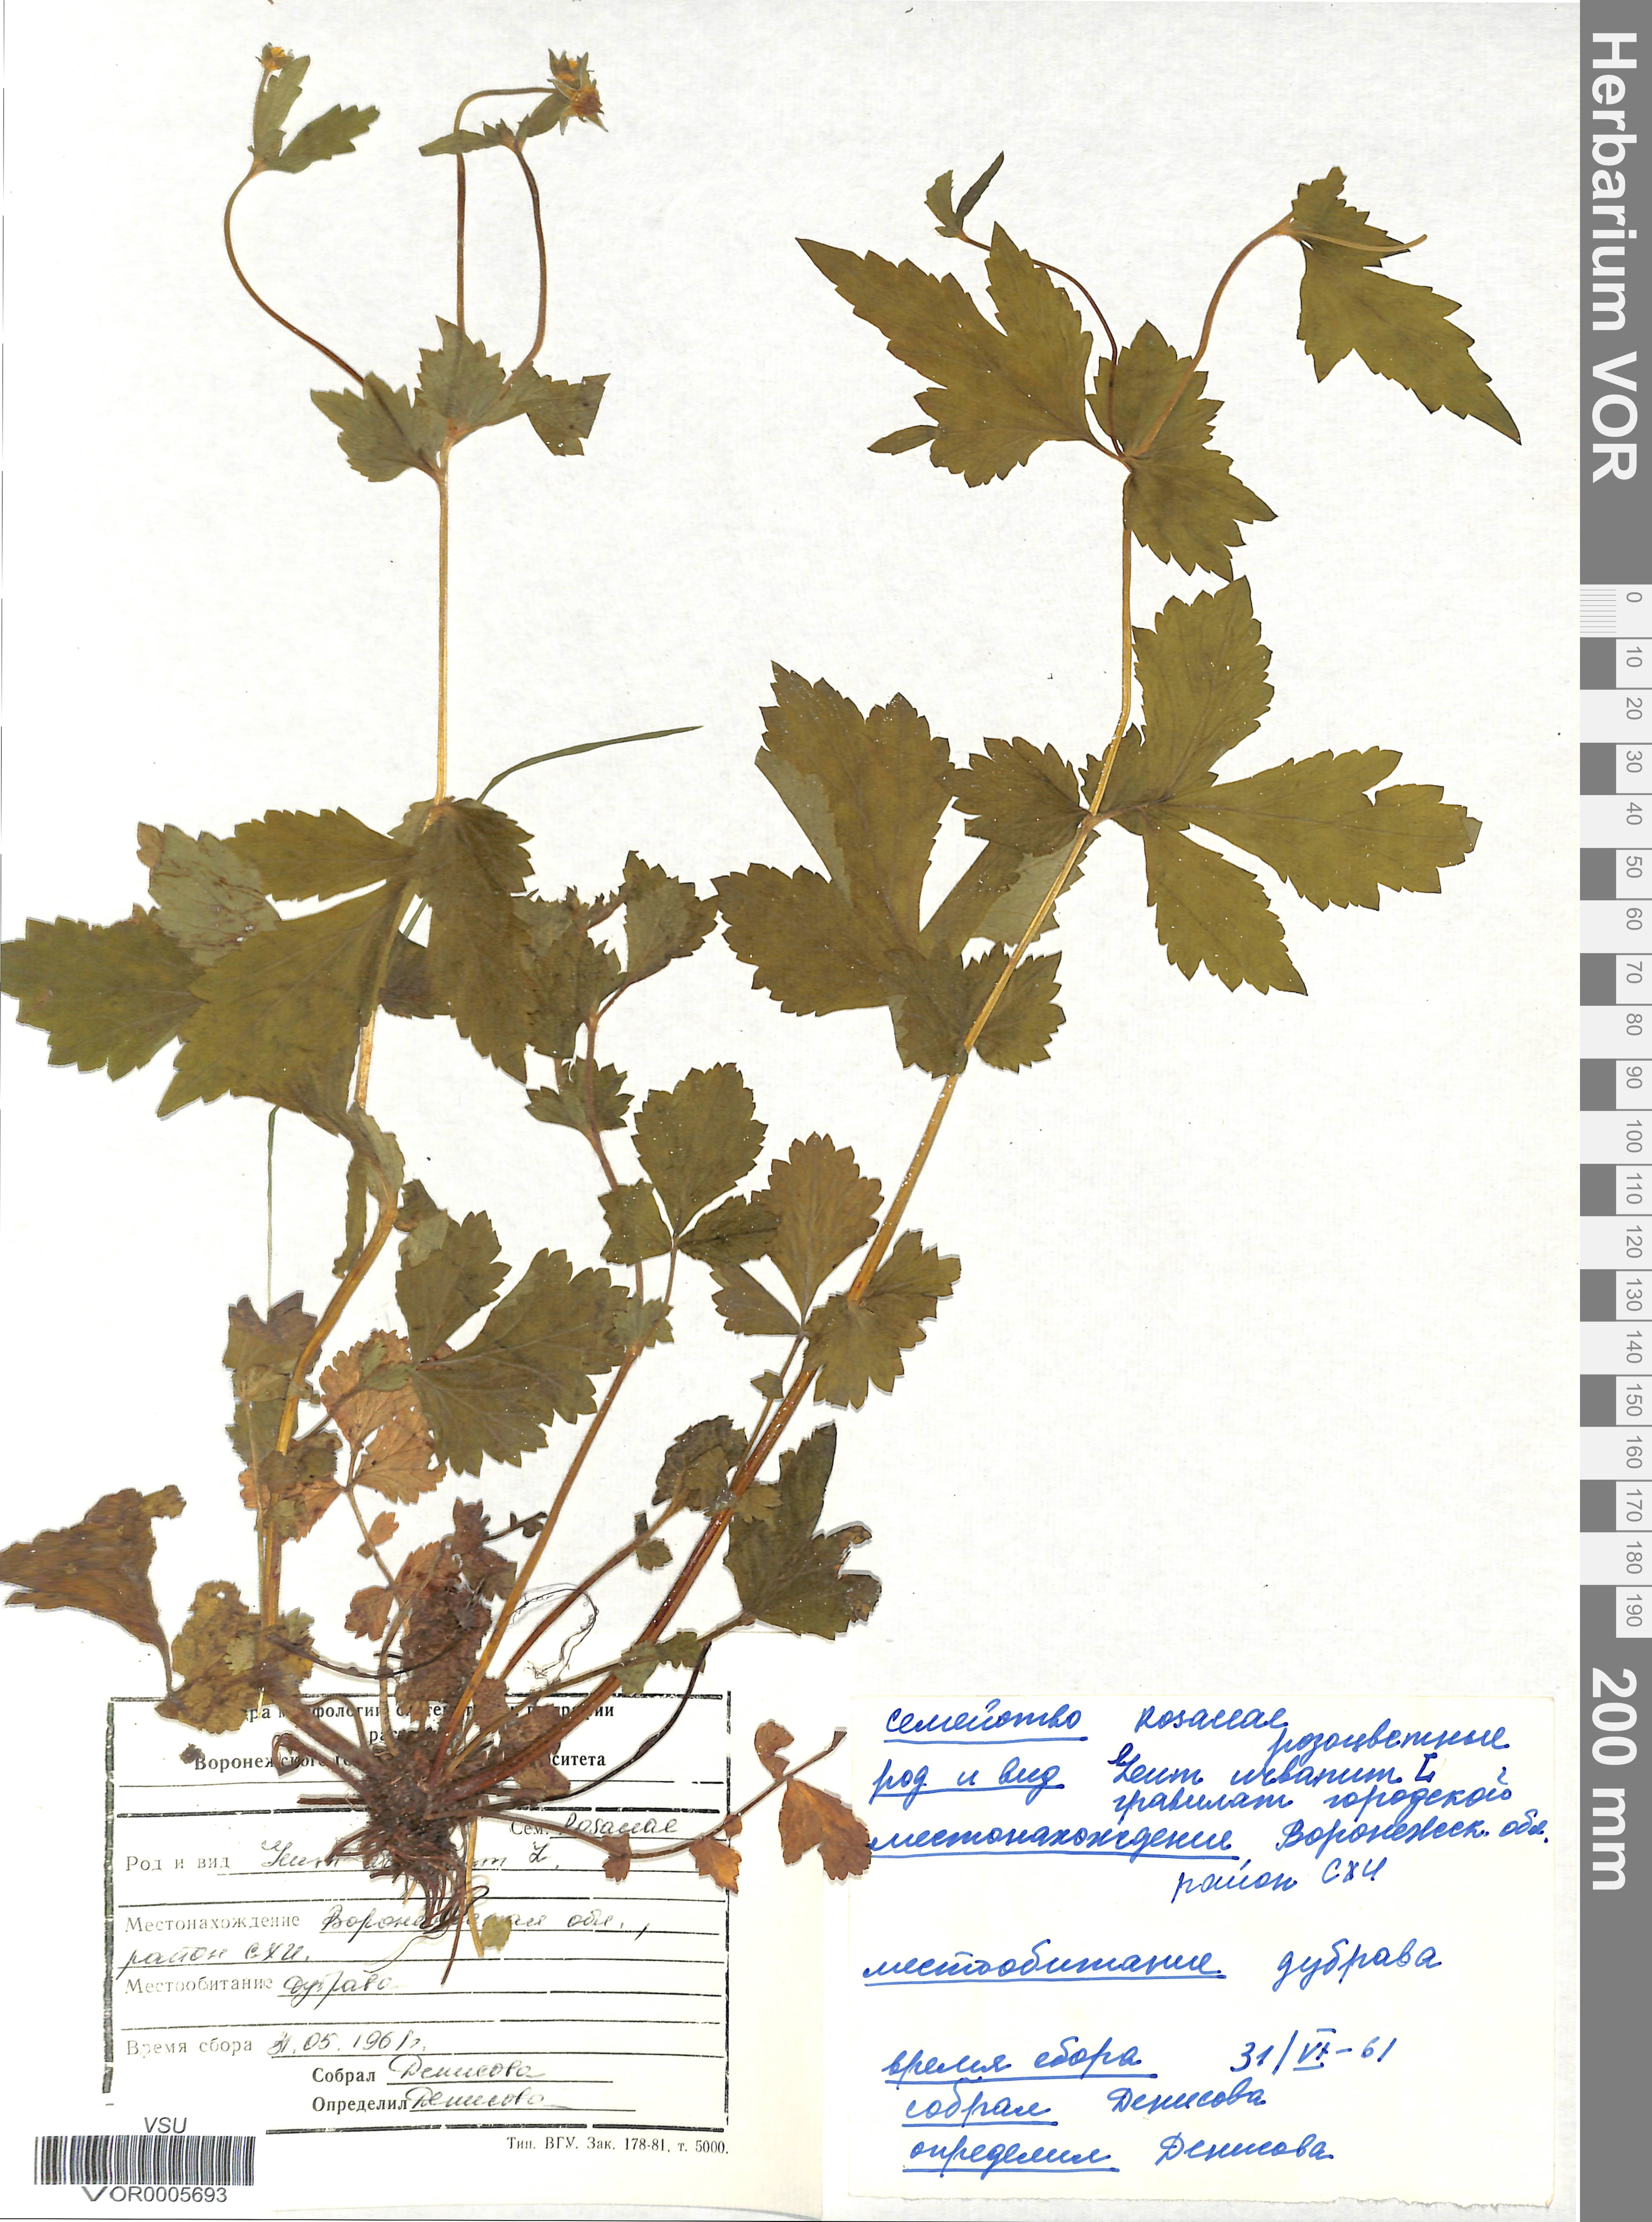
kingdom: Plantae
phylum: Tracheophyta
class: Magnoliopsida
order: Rosales
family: Rosaceae
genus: Geum
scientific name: Geum urbanum
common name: Wood avens
